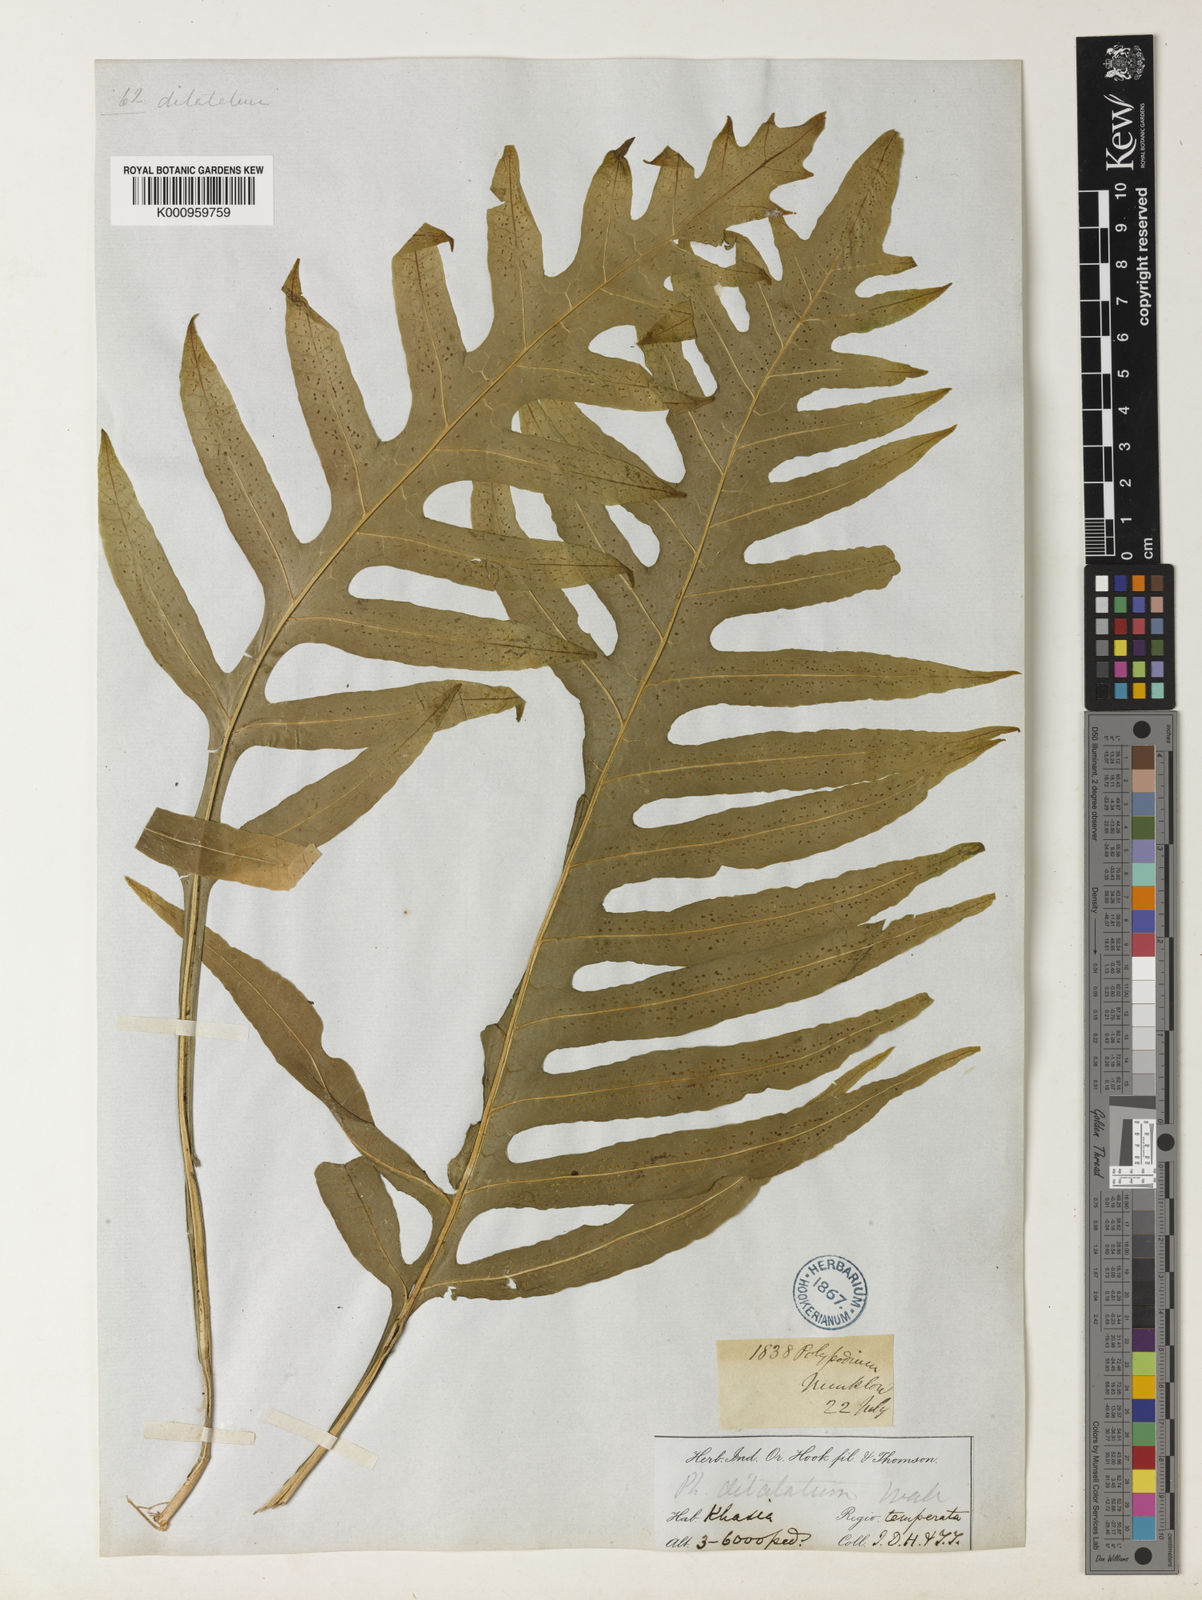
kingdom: Plantae
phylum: Tracheophyta
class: Polypodiopsida
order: Polypodiales
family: Polypodiaceae
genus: Leptochilus
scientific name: Leptochilus insignis
